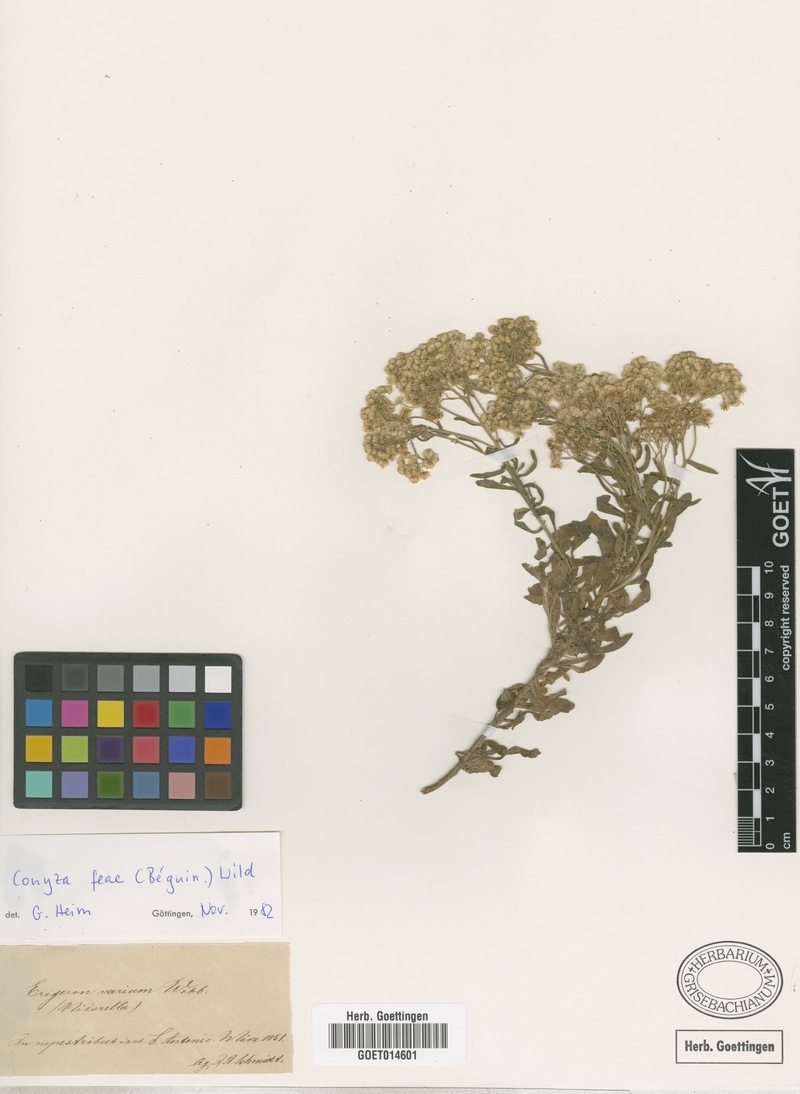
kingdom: Plantae
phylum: Tracheophyta
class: Magnoliopsida
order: Asterales
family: Asteraceae
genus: Nidorella
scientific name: Nidorella nobrei
